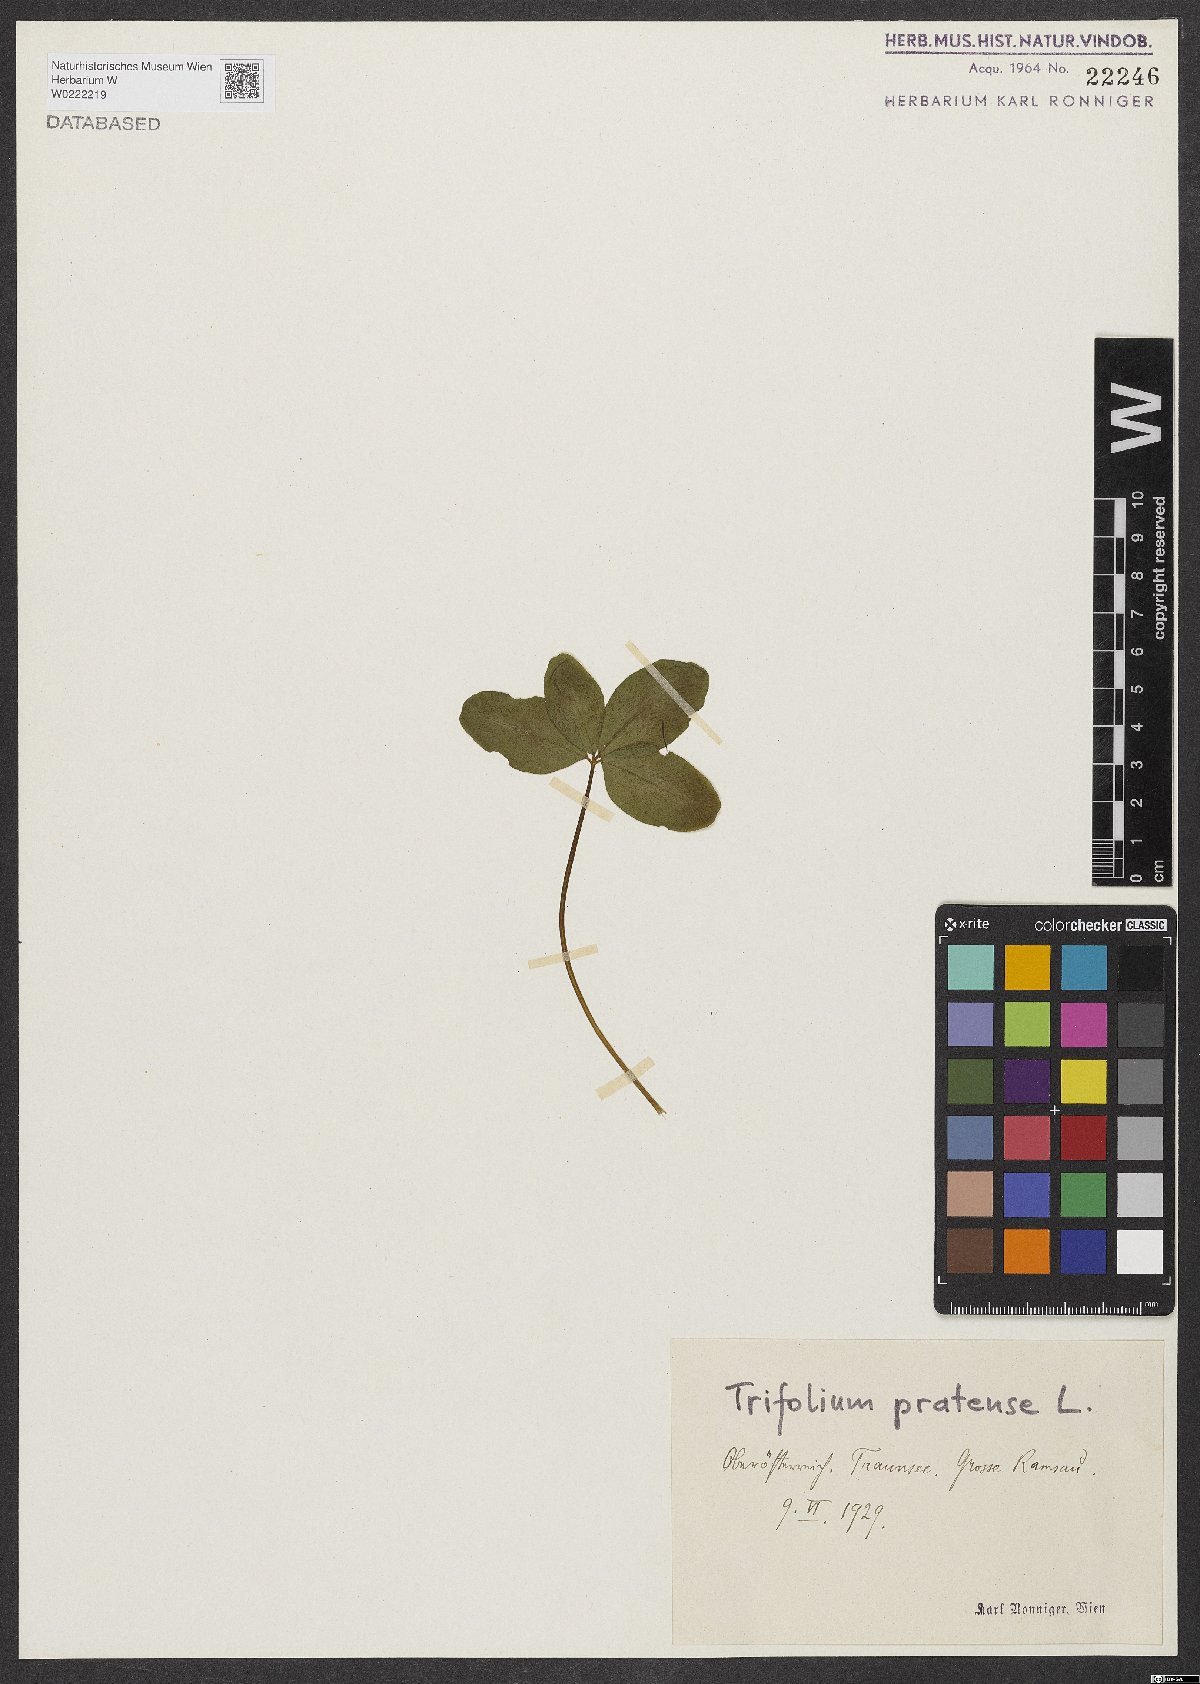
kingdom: Plantae
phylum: Tracheophyta
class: Magnoliopsida
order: Fabales
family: Fabaceae
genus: Trifolium
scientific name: Trifolium pratense
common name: Red clover
